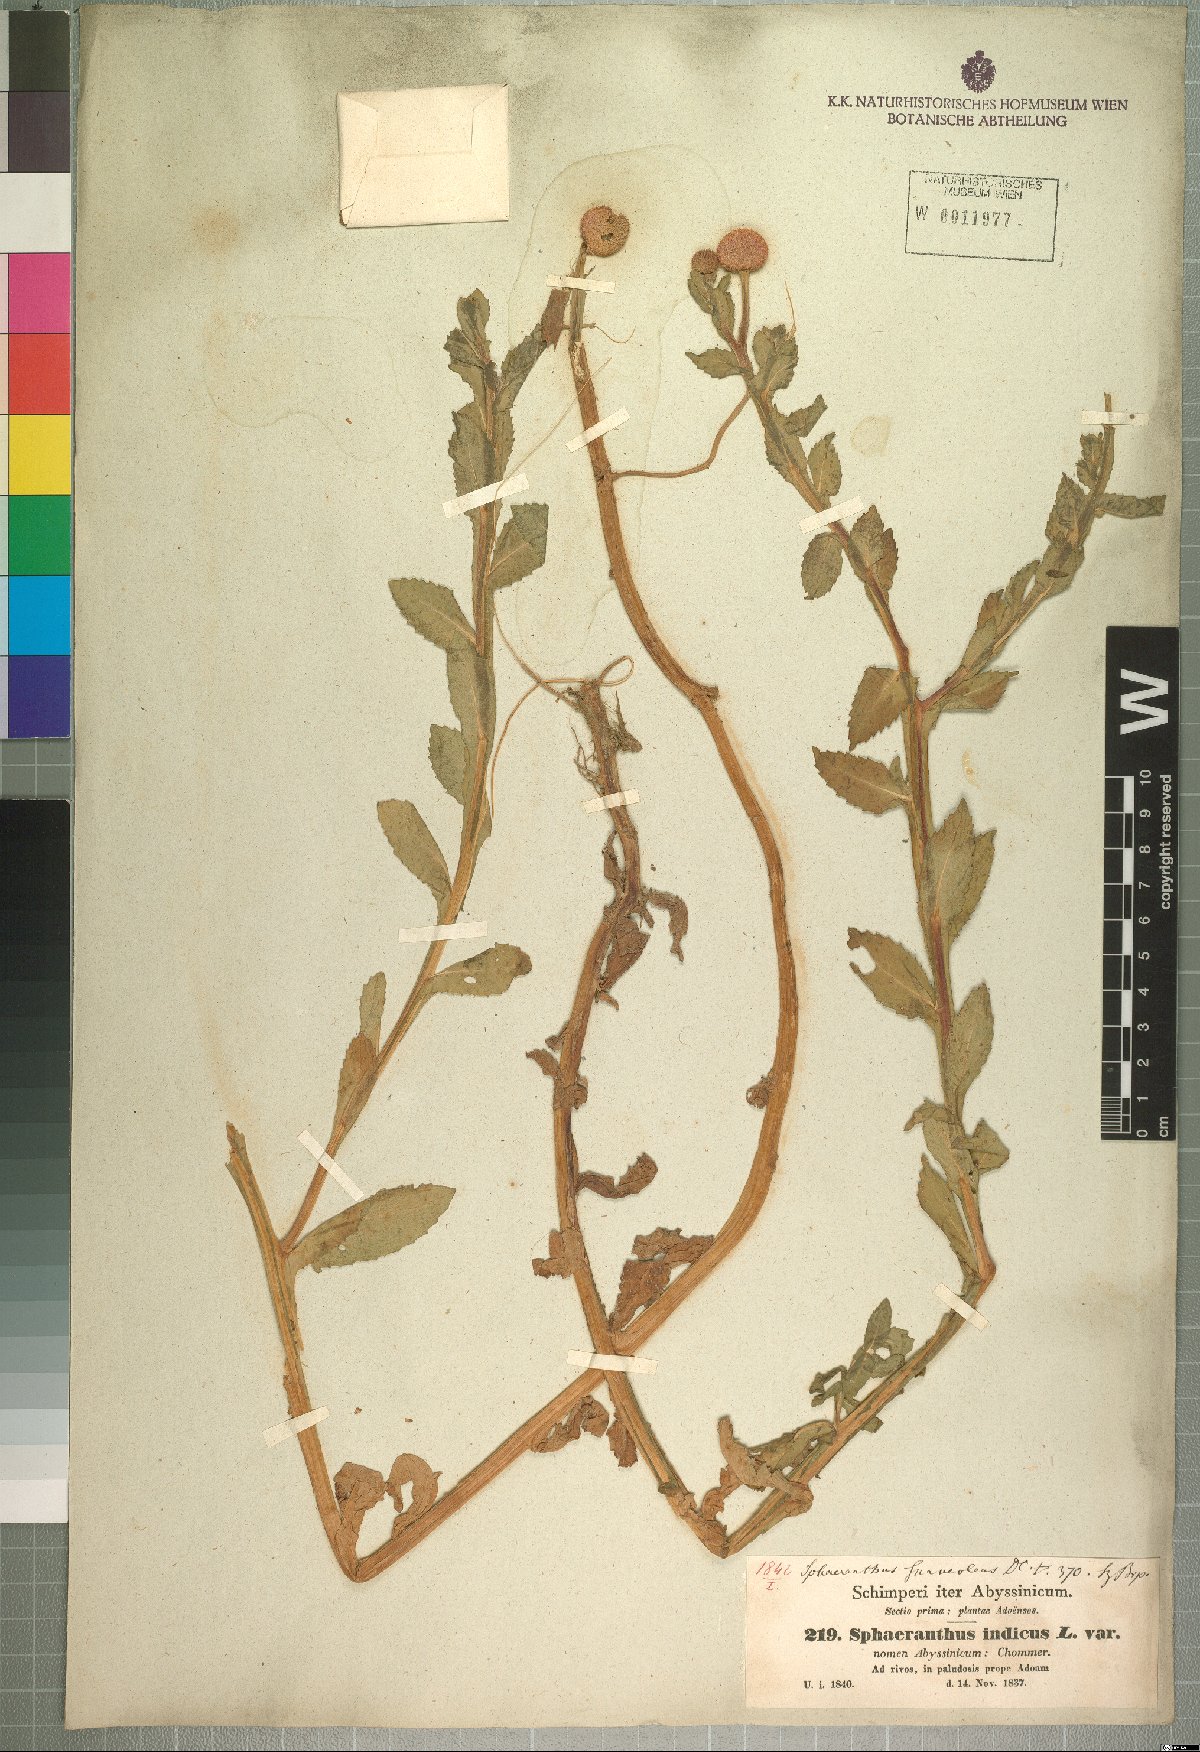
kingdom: Plantae
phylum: Tracheophyta
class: Magnoliopsida
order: Asterales
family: Asteraceae
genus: Sphaeranthus
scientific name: Sphaeranthus suaveolens
